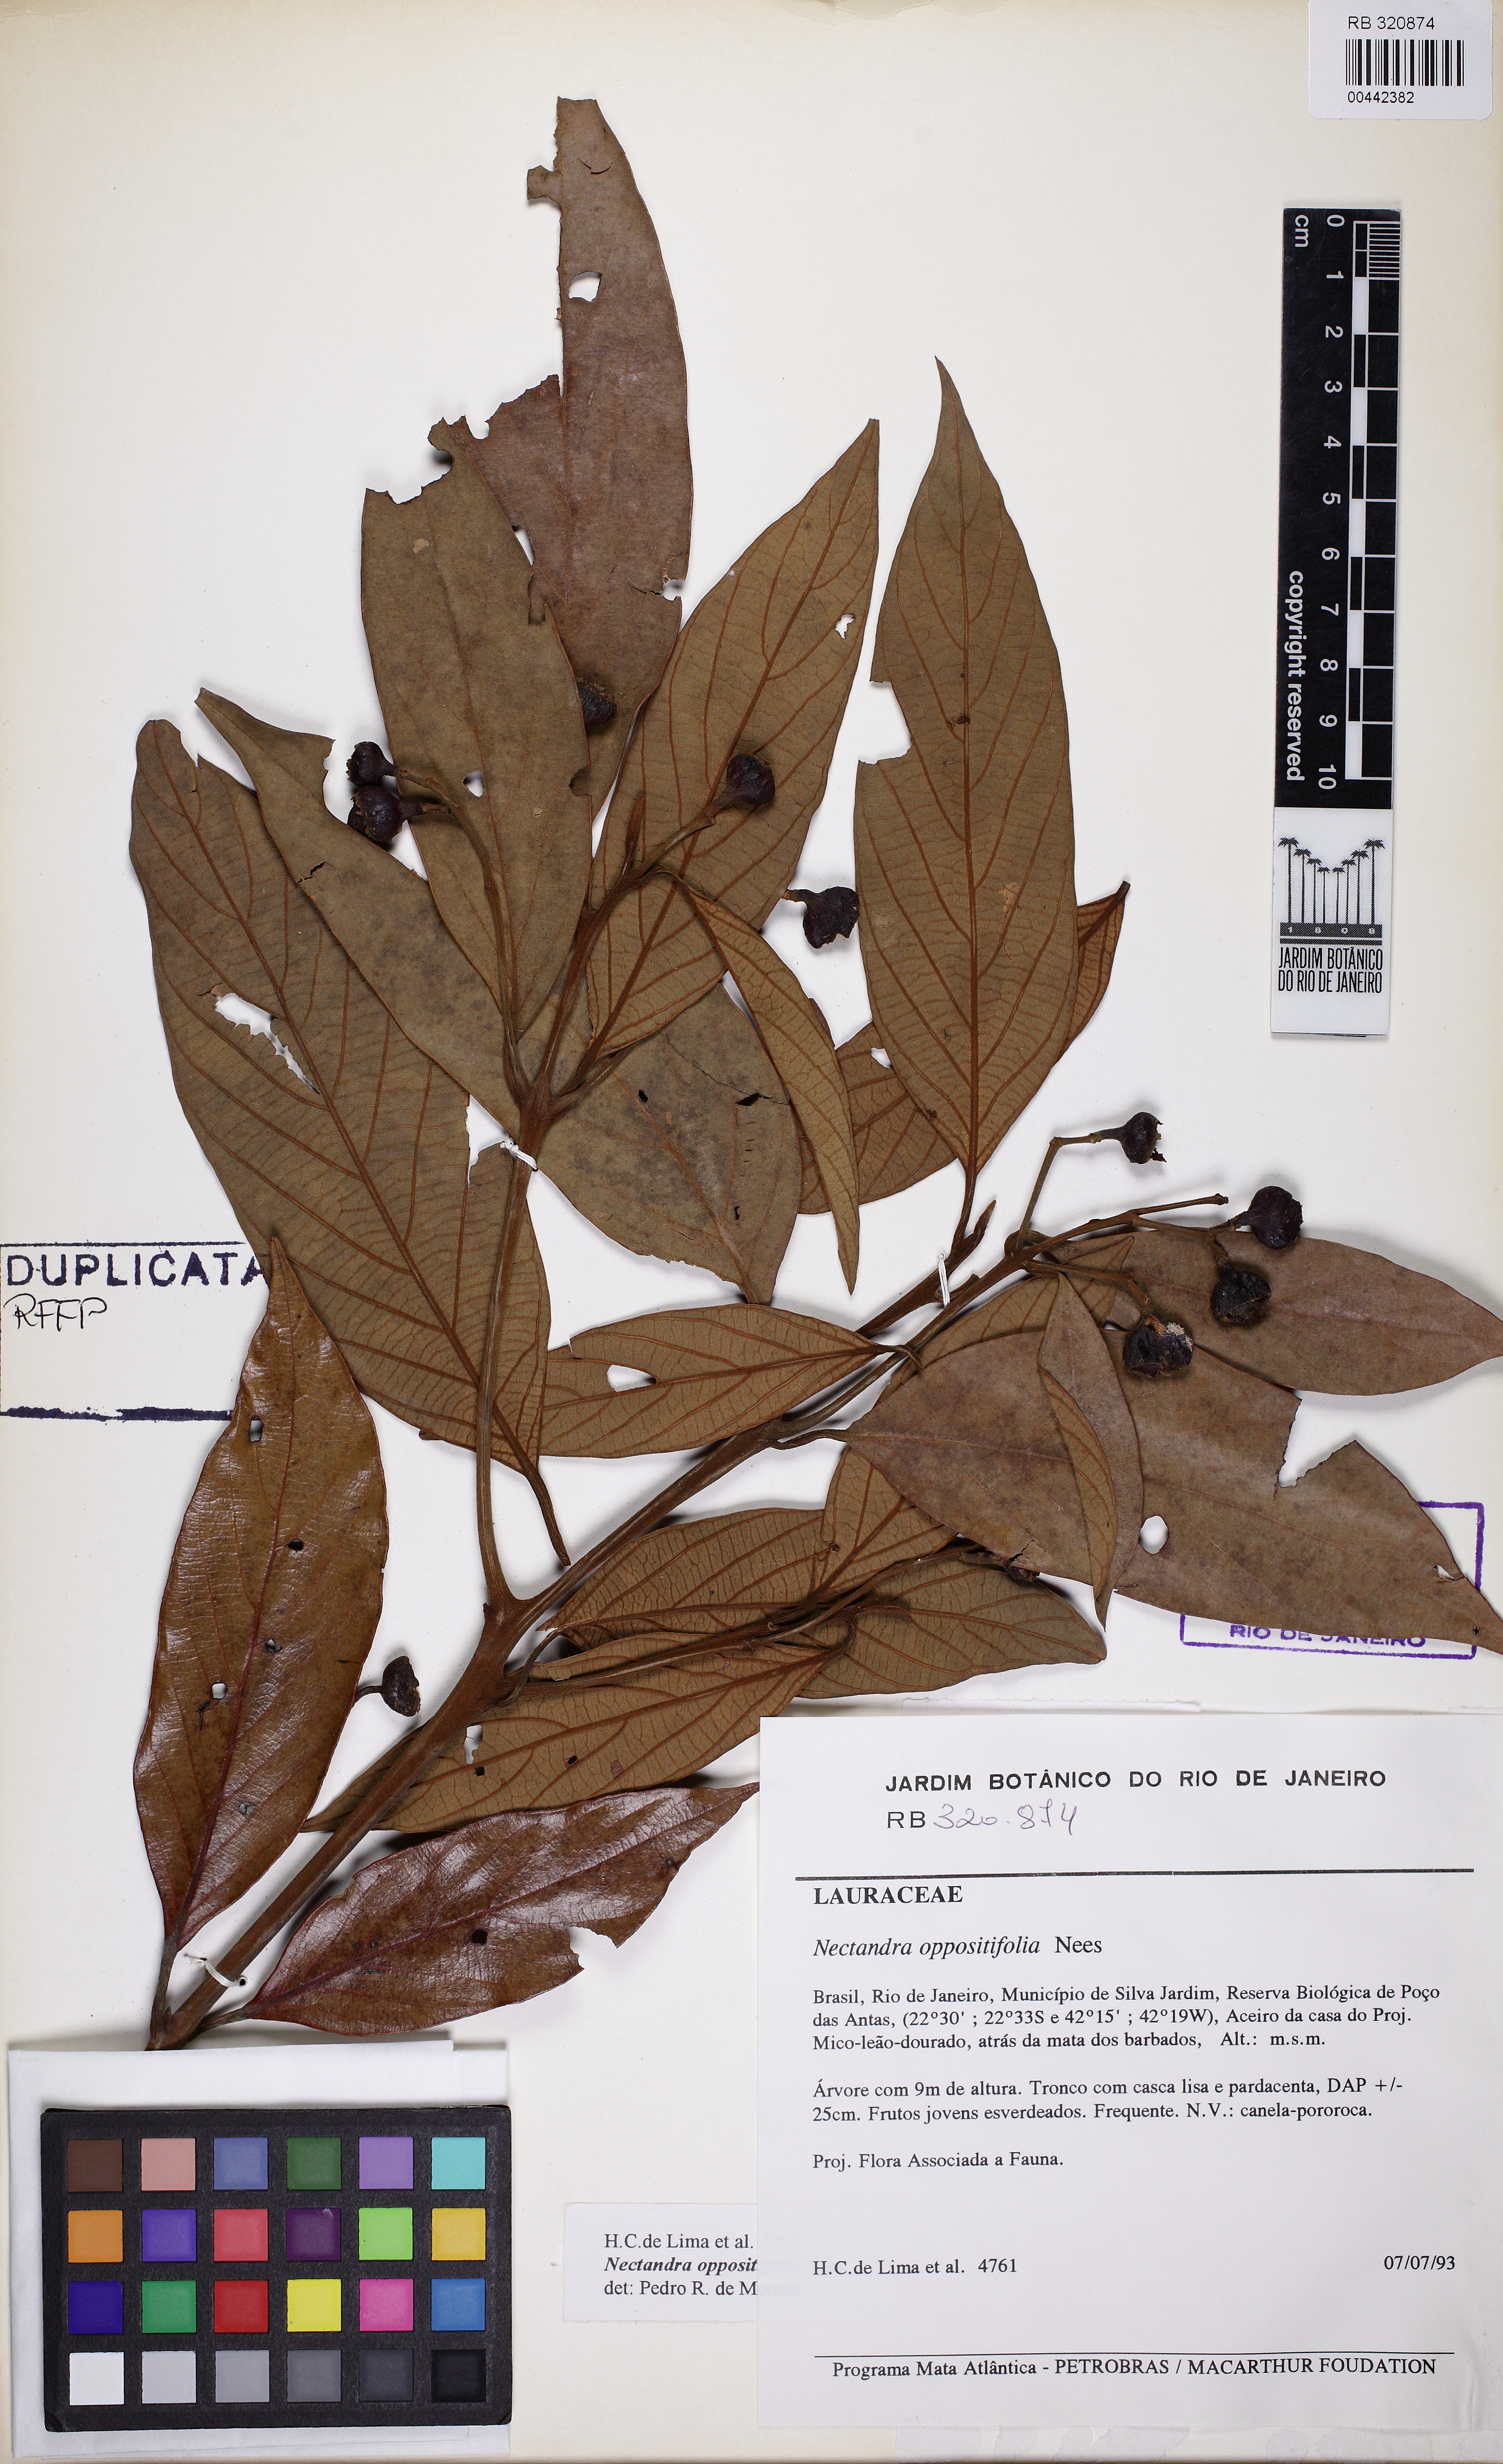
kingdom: Plantae
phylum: Tracheophyta
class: Magnoliopsida
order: Laurales
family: Lauraceae
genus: Nectandra
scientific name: Nectandra oppositifolia
